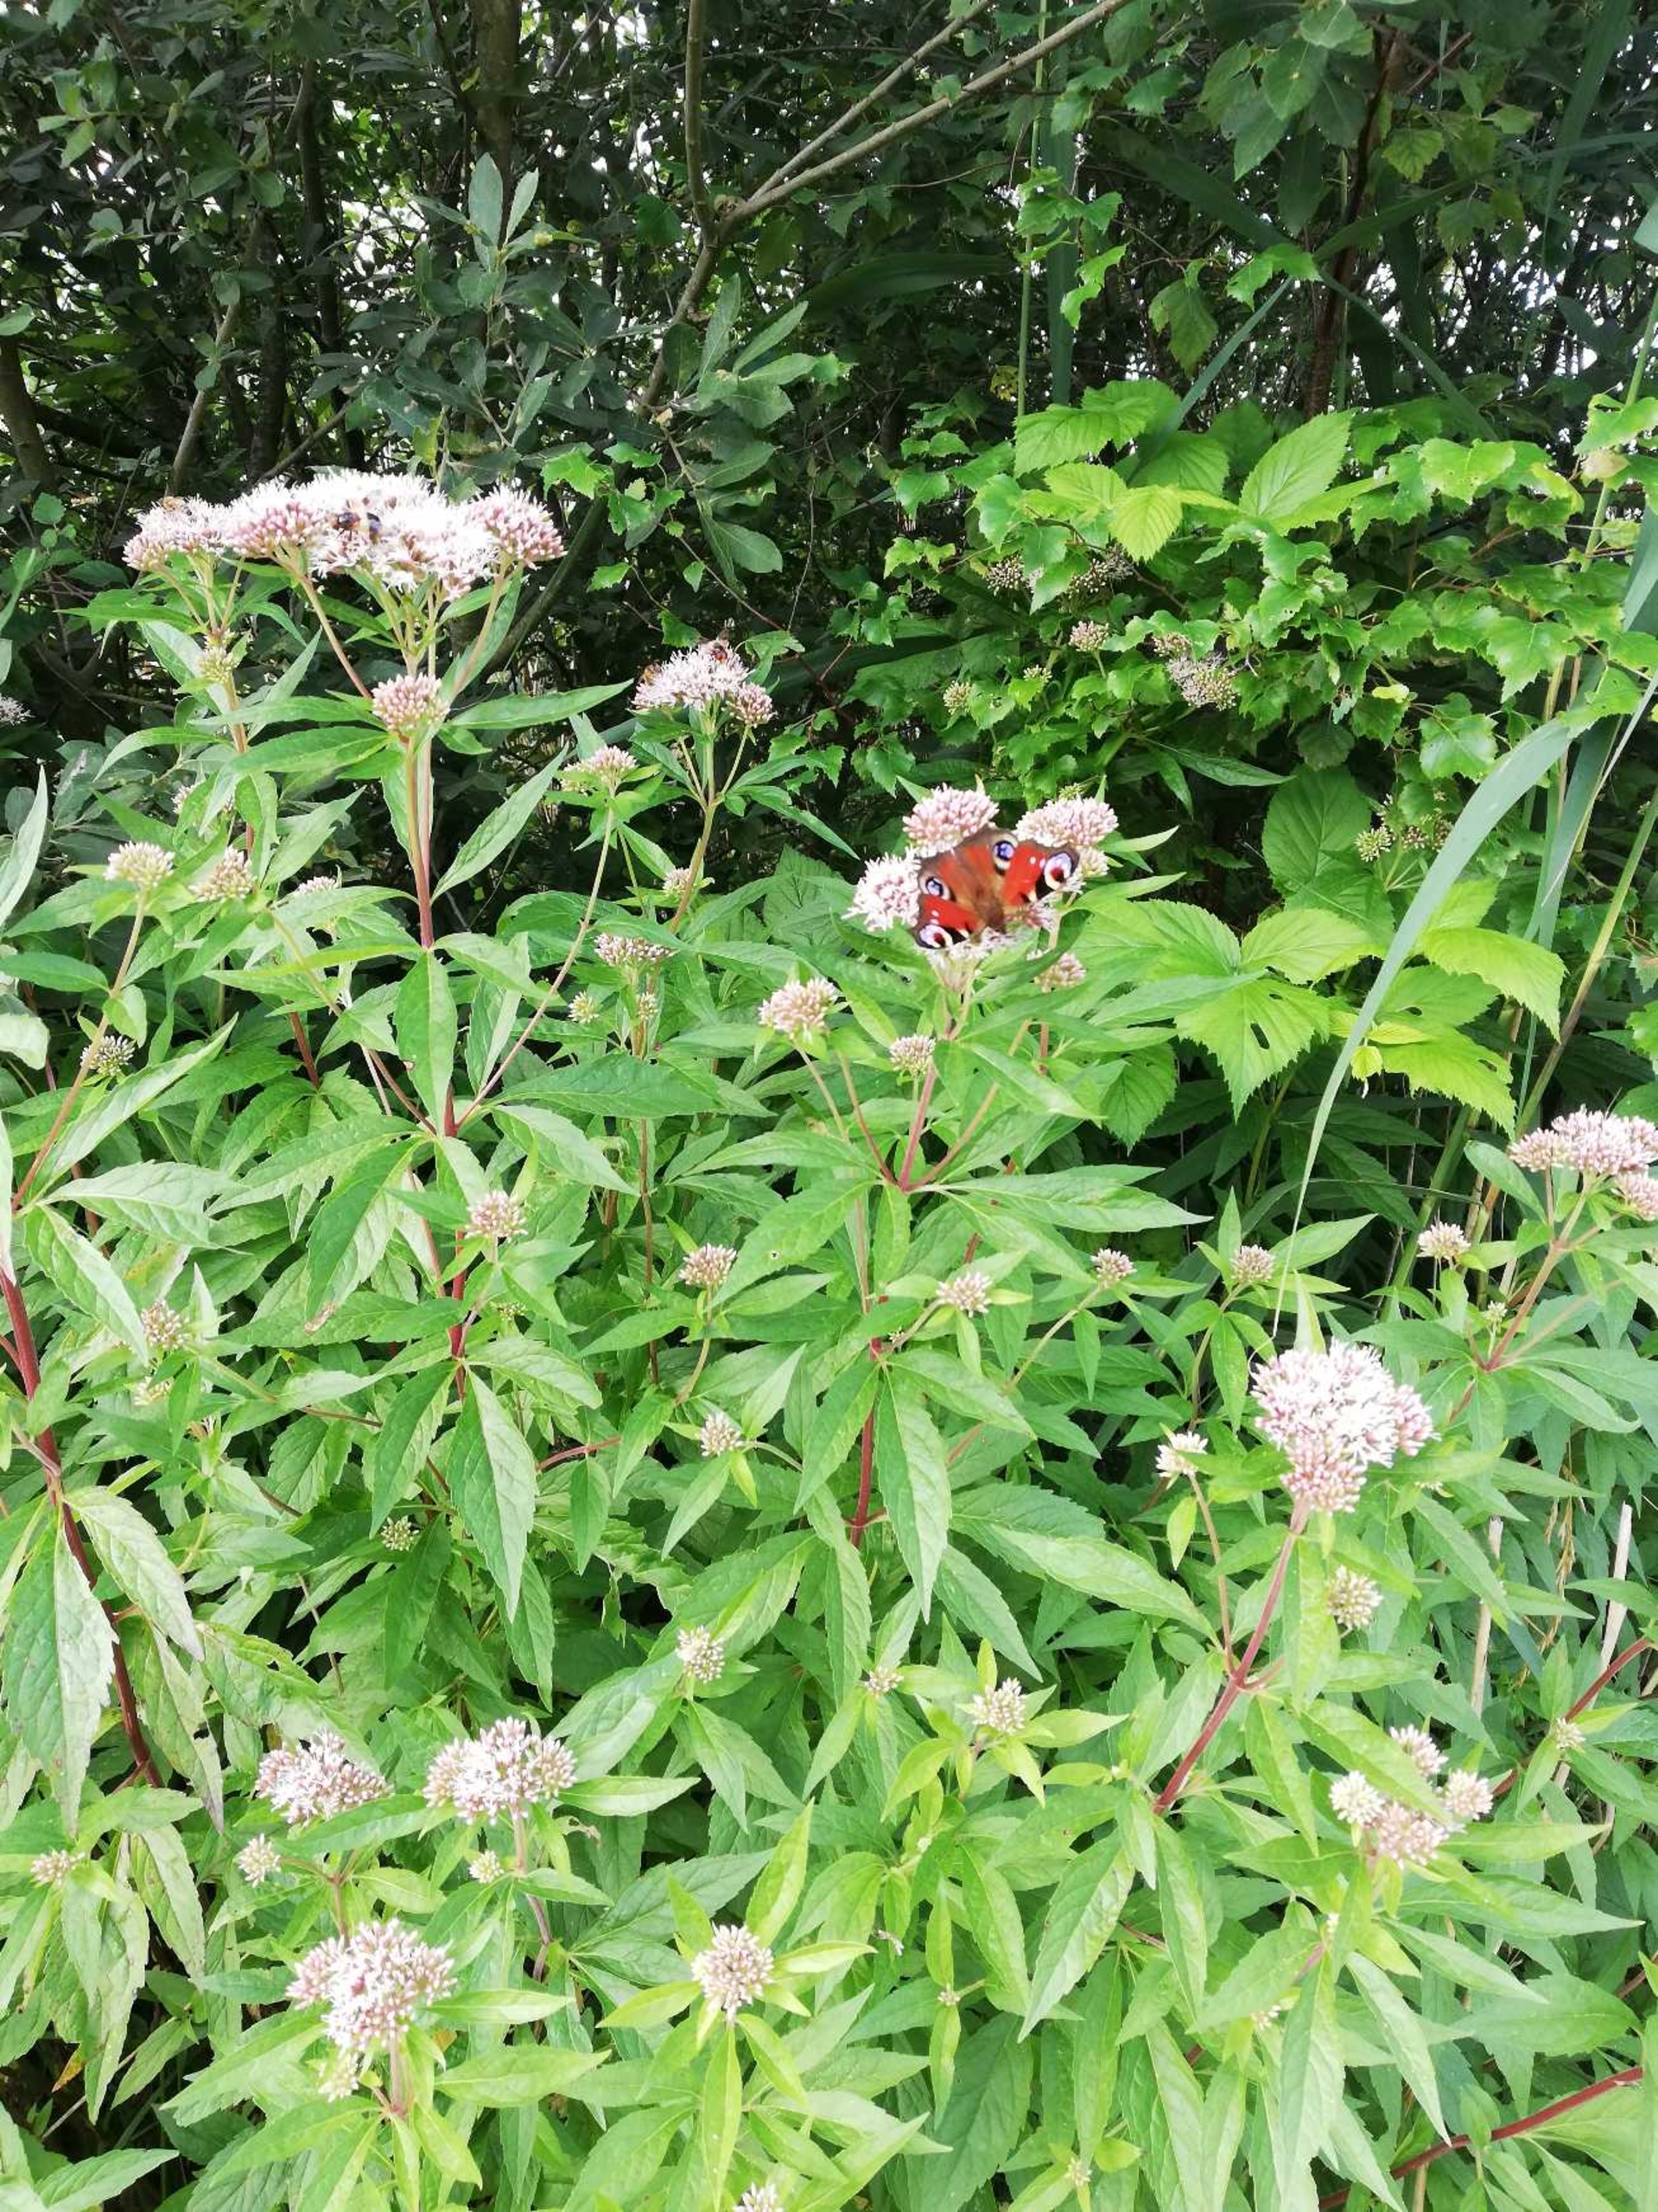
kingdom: Plantae
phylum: Tracheophyta
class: Magnoliopsida
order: Asterales
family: Asteraceae
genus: Eupatorium
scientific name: Eupatorium cannabinum
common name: Hjortetrøst
